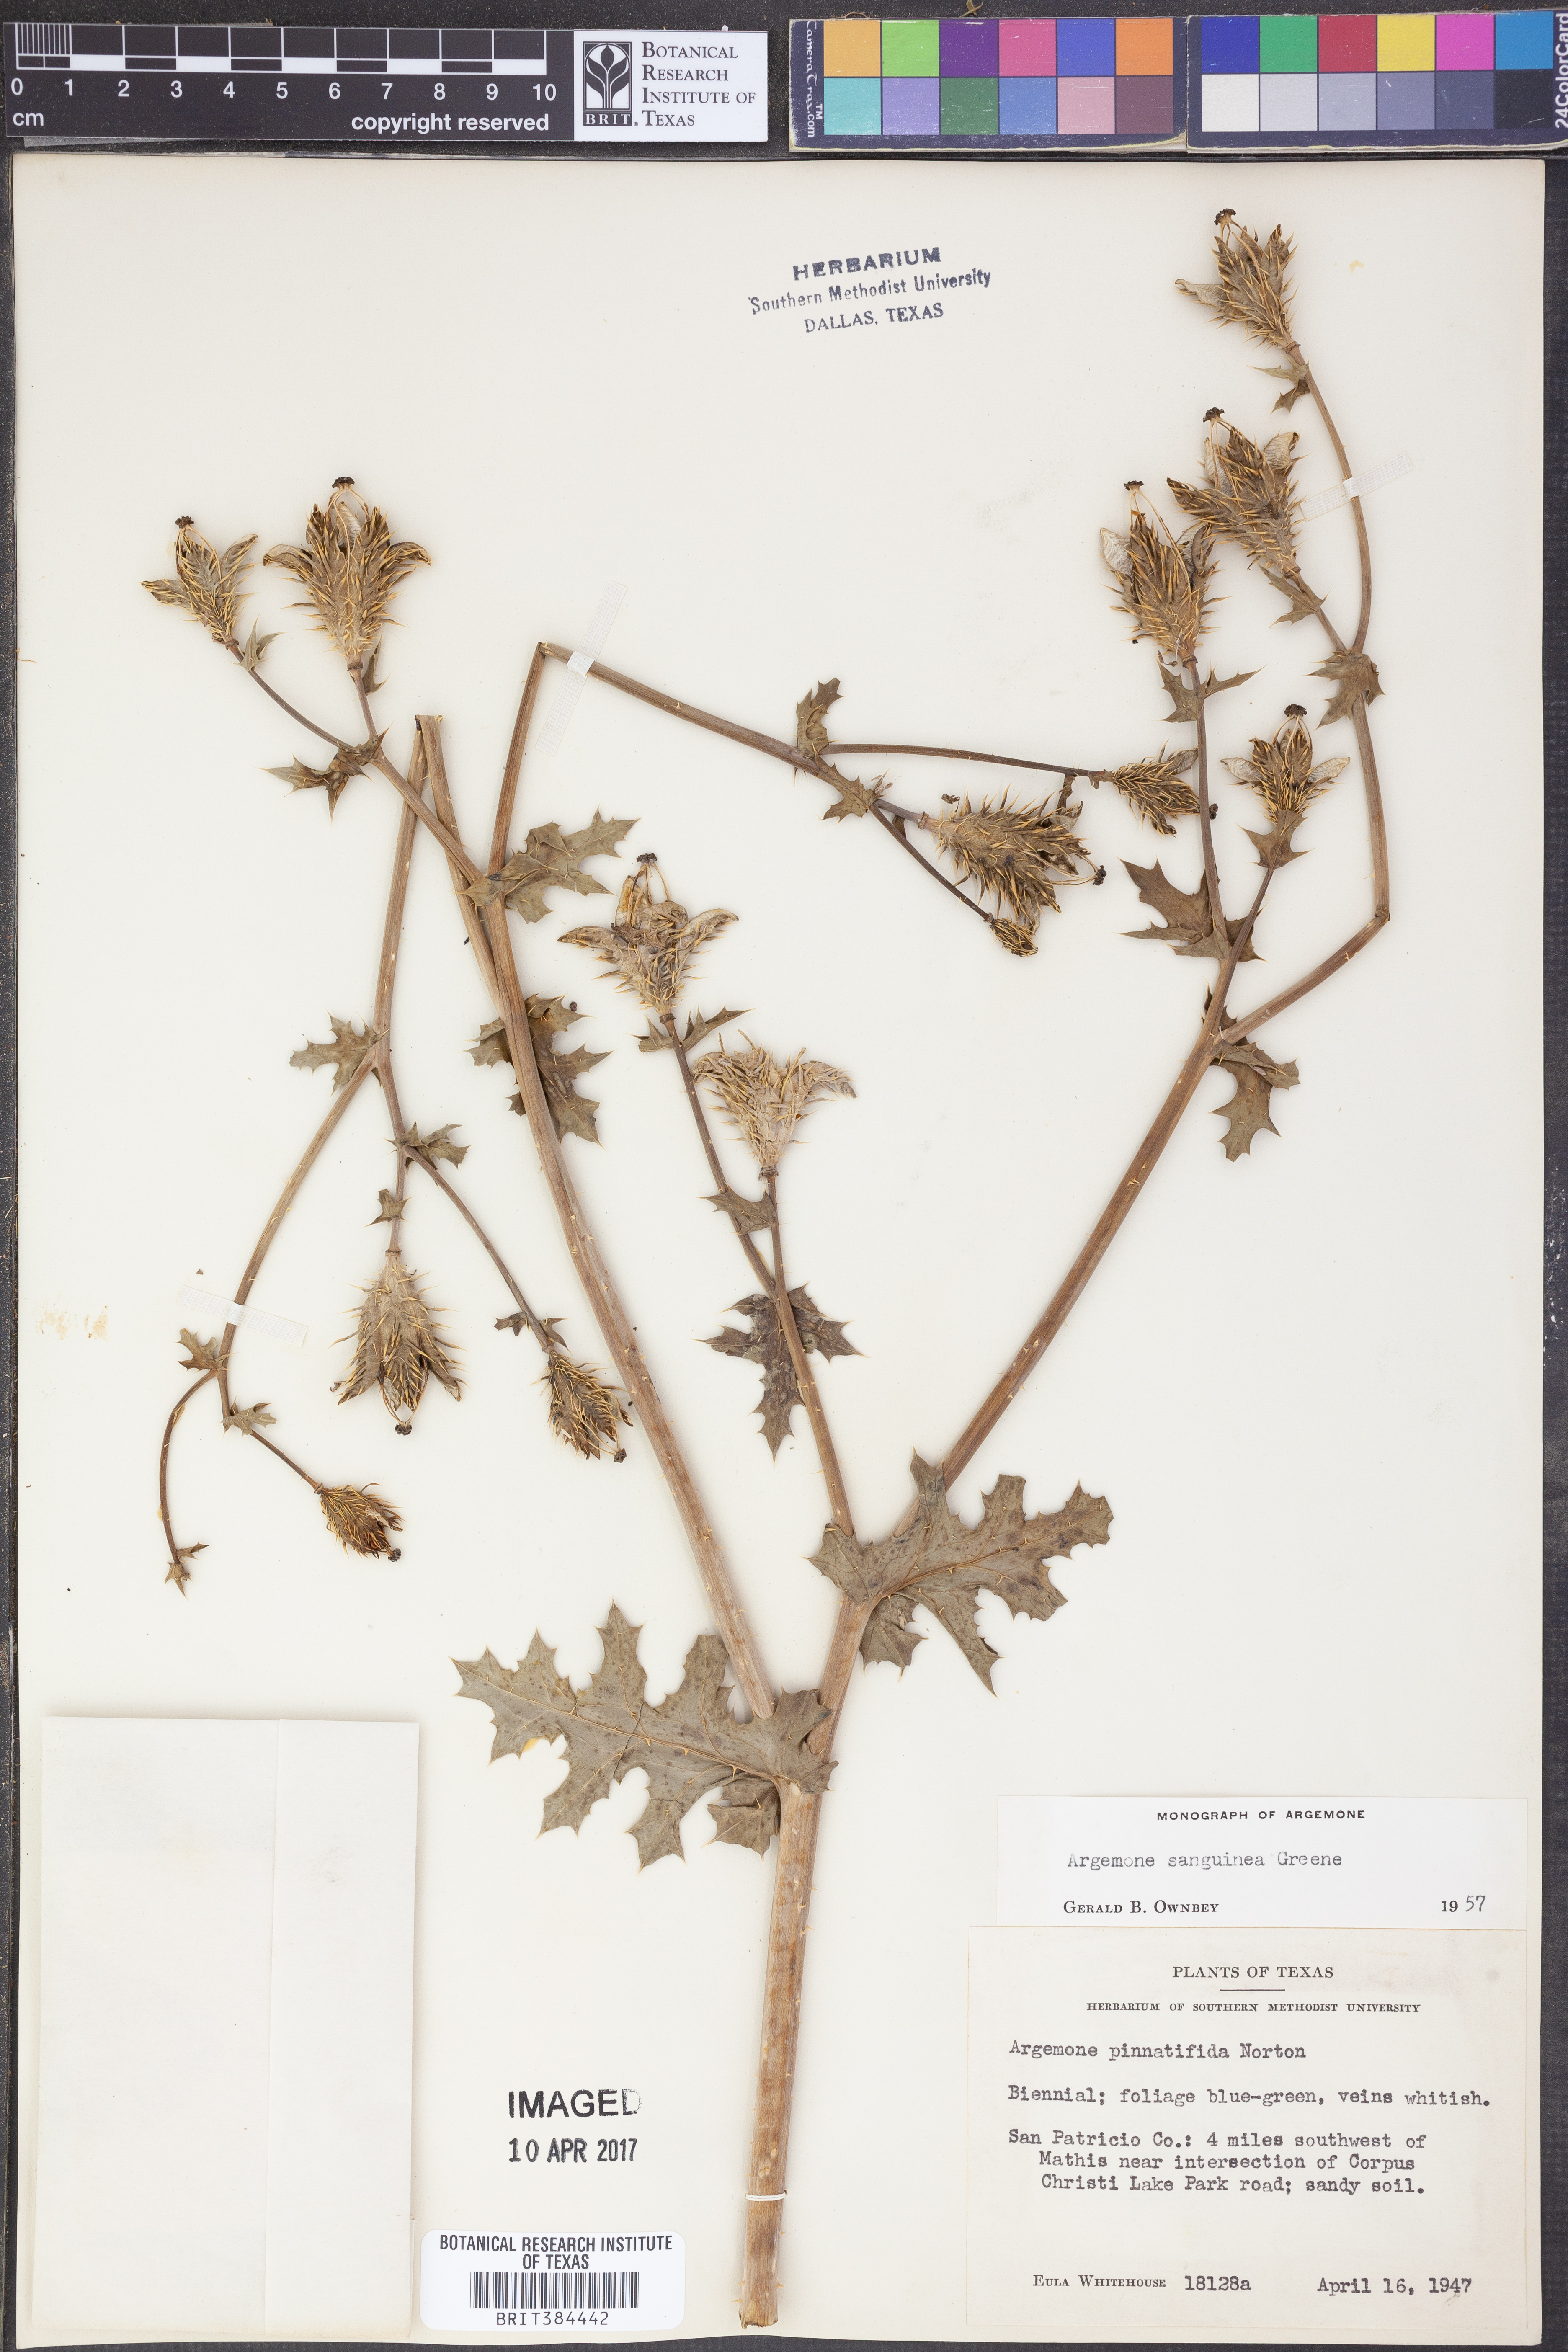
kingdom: Plantae
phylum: Tracheophyta
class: Magnoliopsida
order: Ranunculales
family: Papaveraceae
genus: Argemone
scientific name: Argemone sanguinea
